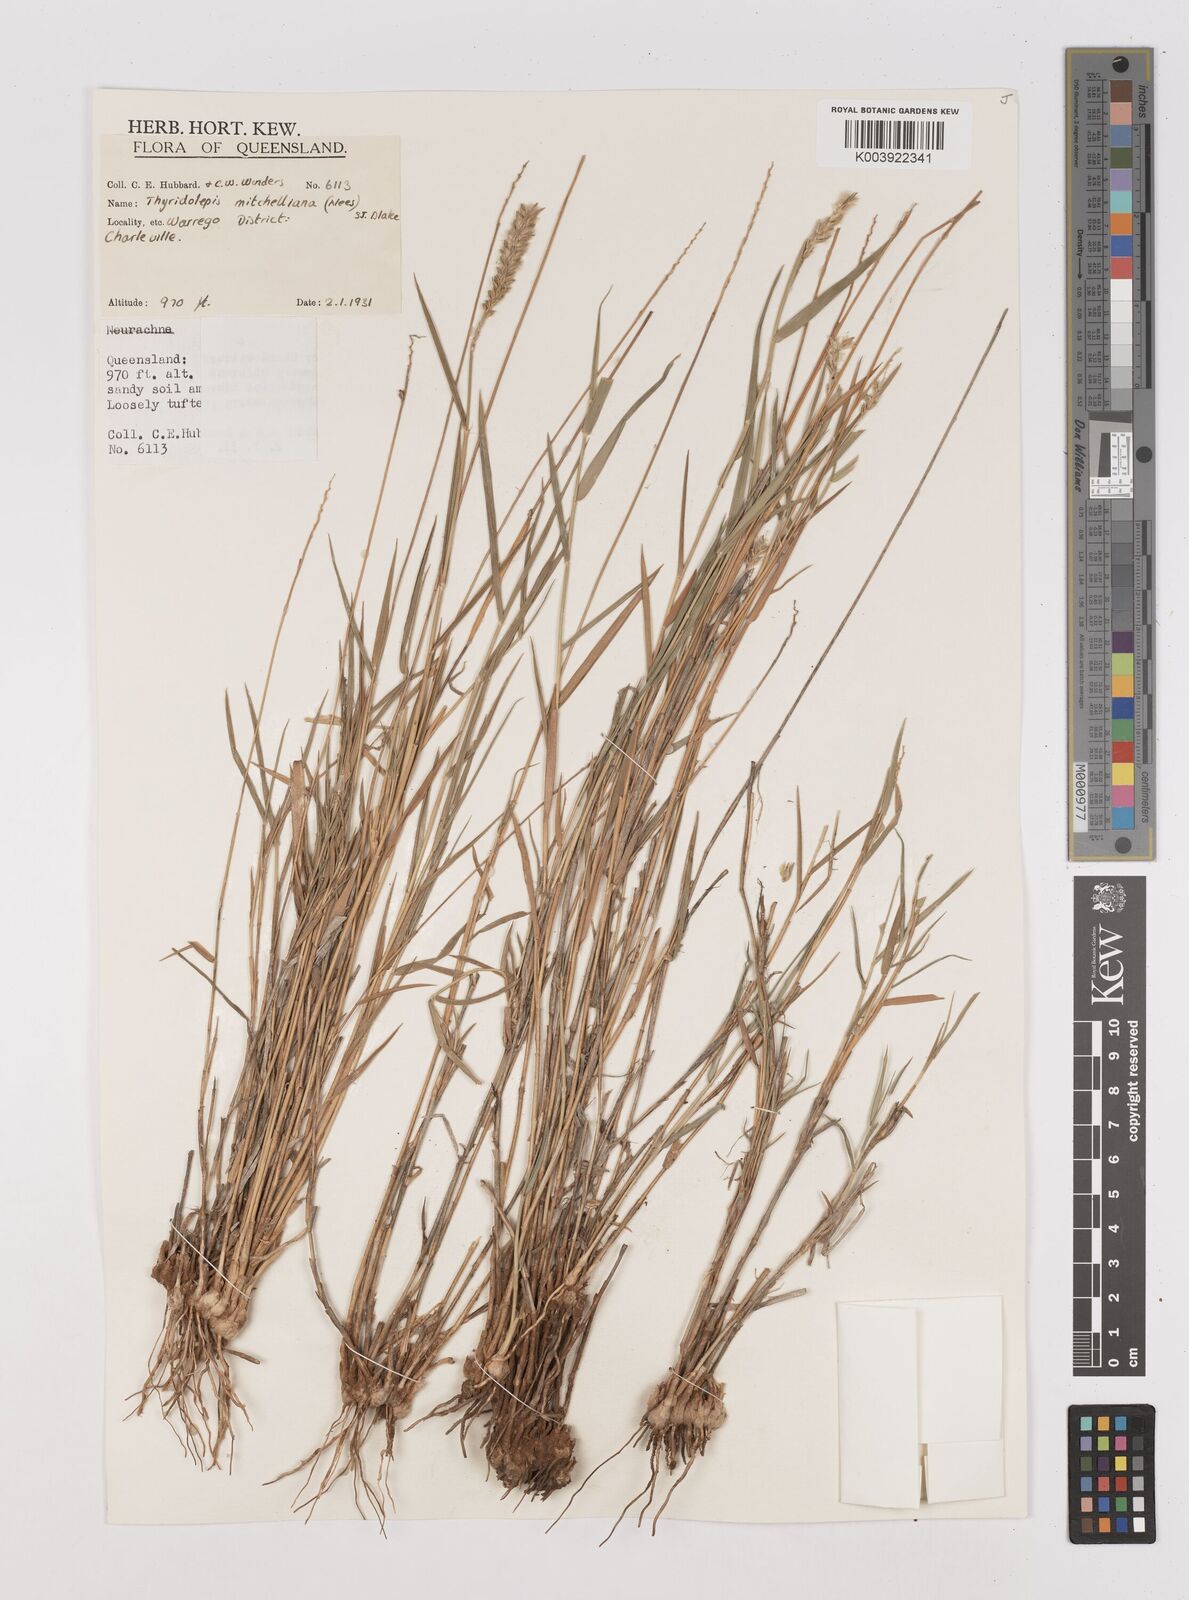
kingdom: Plantae
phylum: Tracheophyta
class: Liliopsida
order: Poales
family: Poaceae
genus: Thyridolepis
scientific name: Thyridolepis mitchelliana
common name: Rock tassel grass
